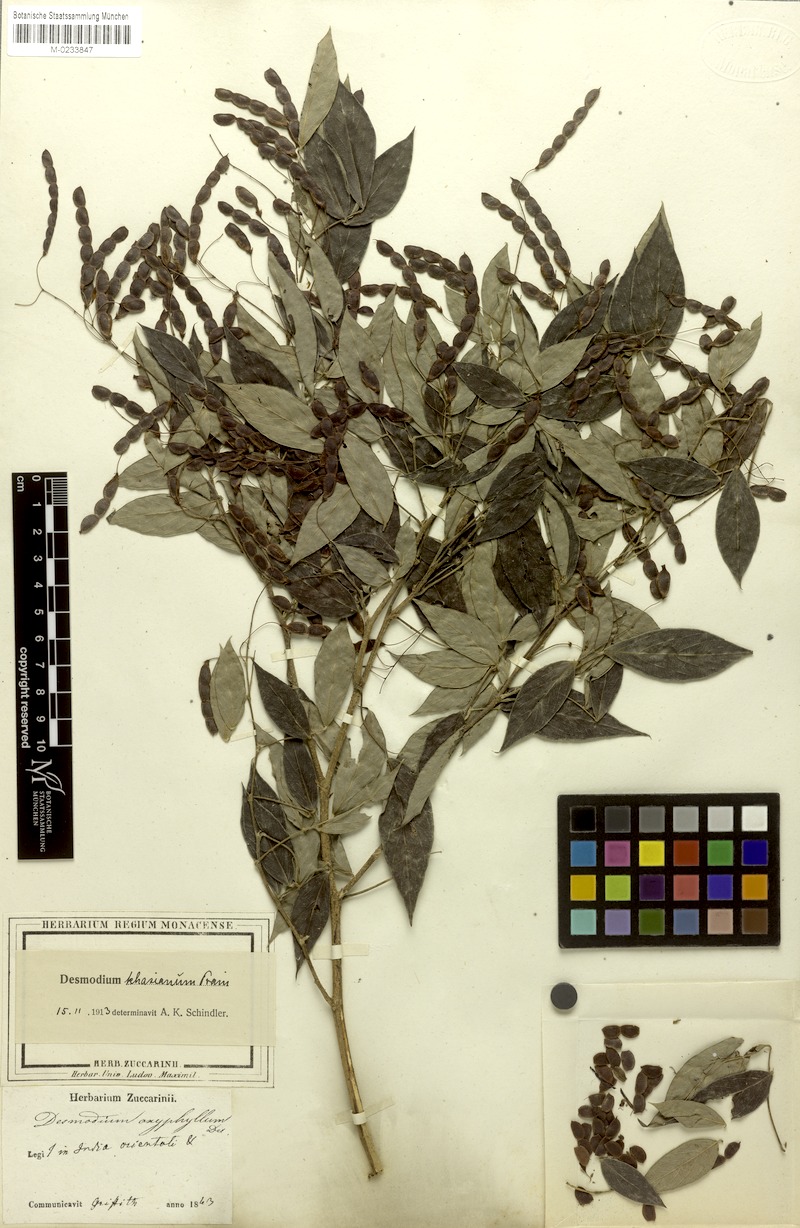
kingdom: Plantae
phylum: Tracheophyta
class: Magnoliopsida
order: Fabales
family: Fabaceae
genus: Ototropis
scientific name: Ototropis khasiana
